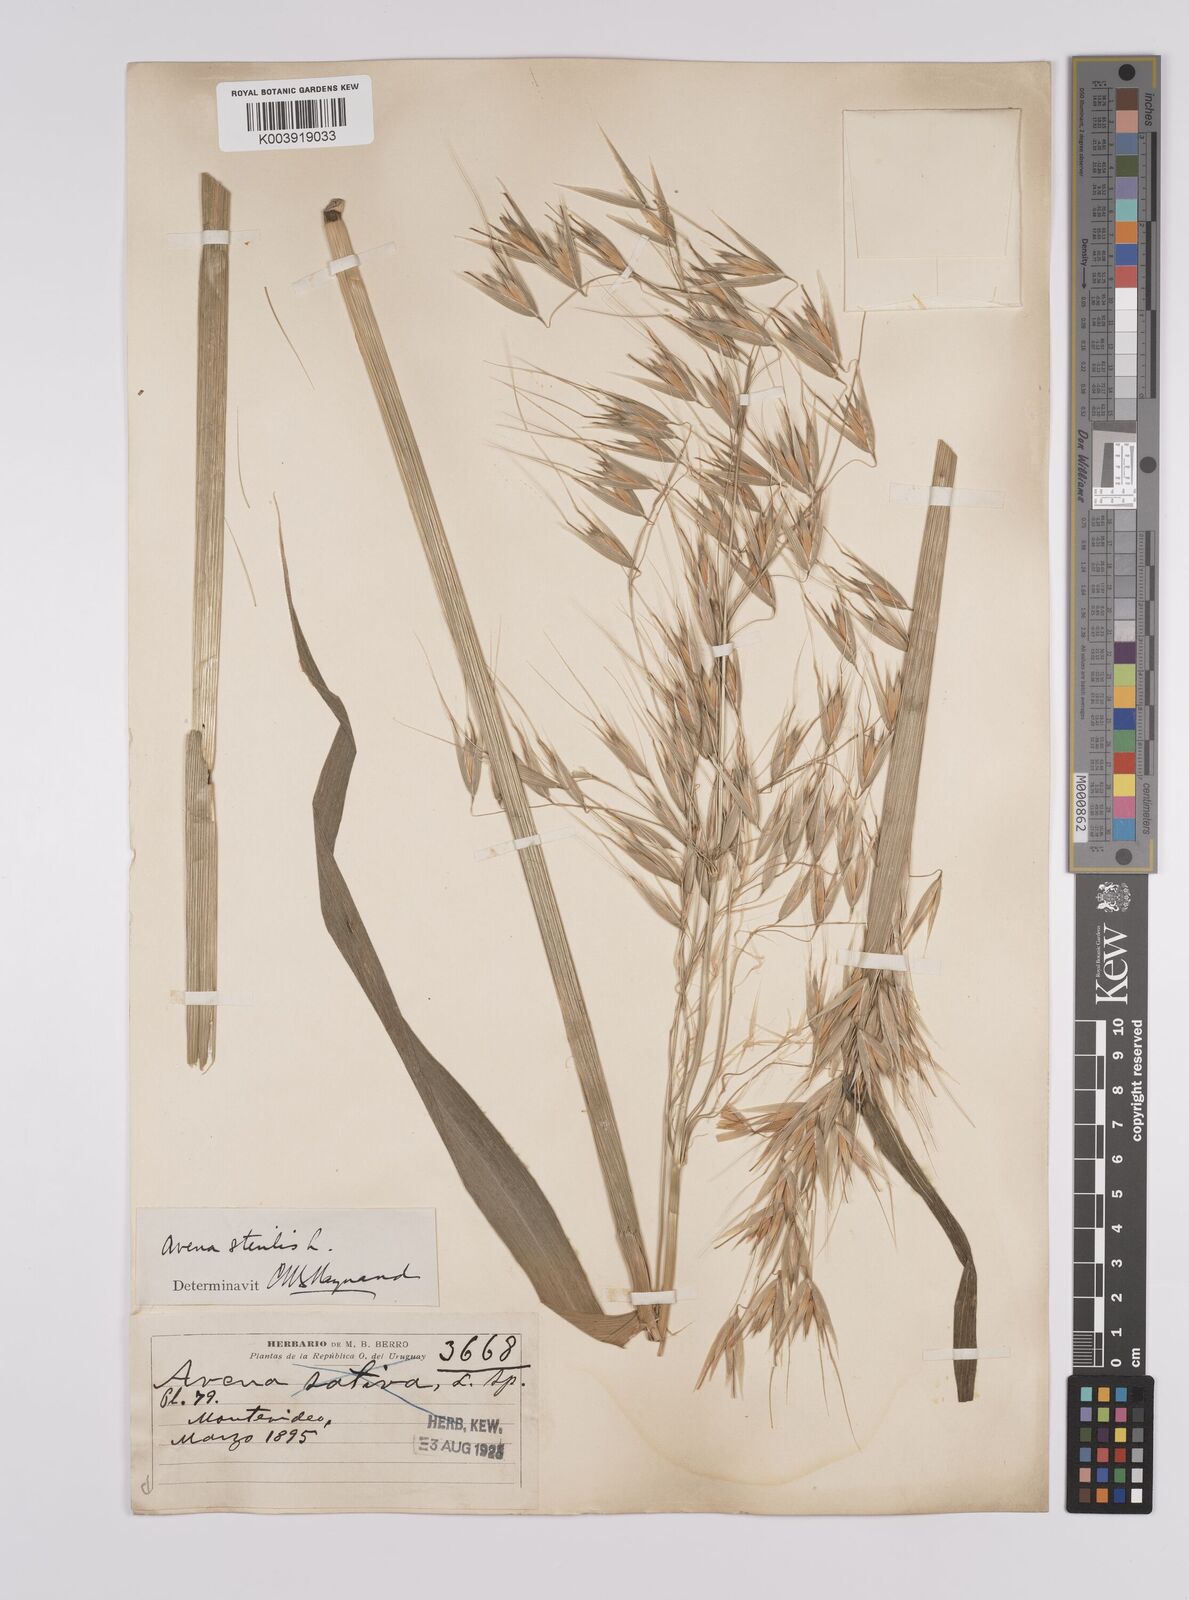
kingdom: Plantae
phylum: Tracheophyta
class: Liliopsida
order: Poales
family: Poaceae
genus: Avena
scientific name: Avena sterilis
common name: Animated oat
